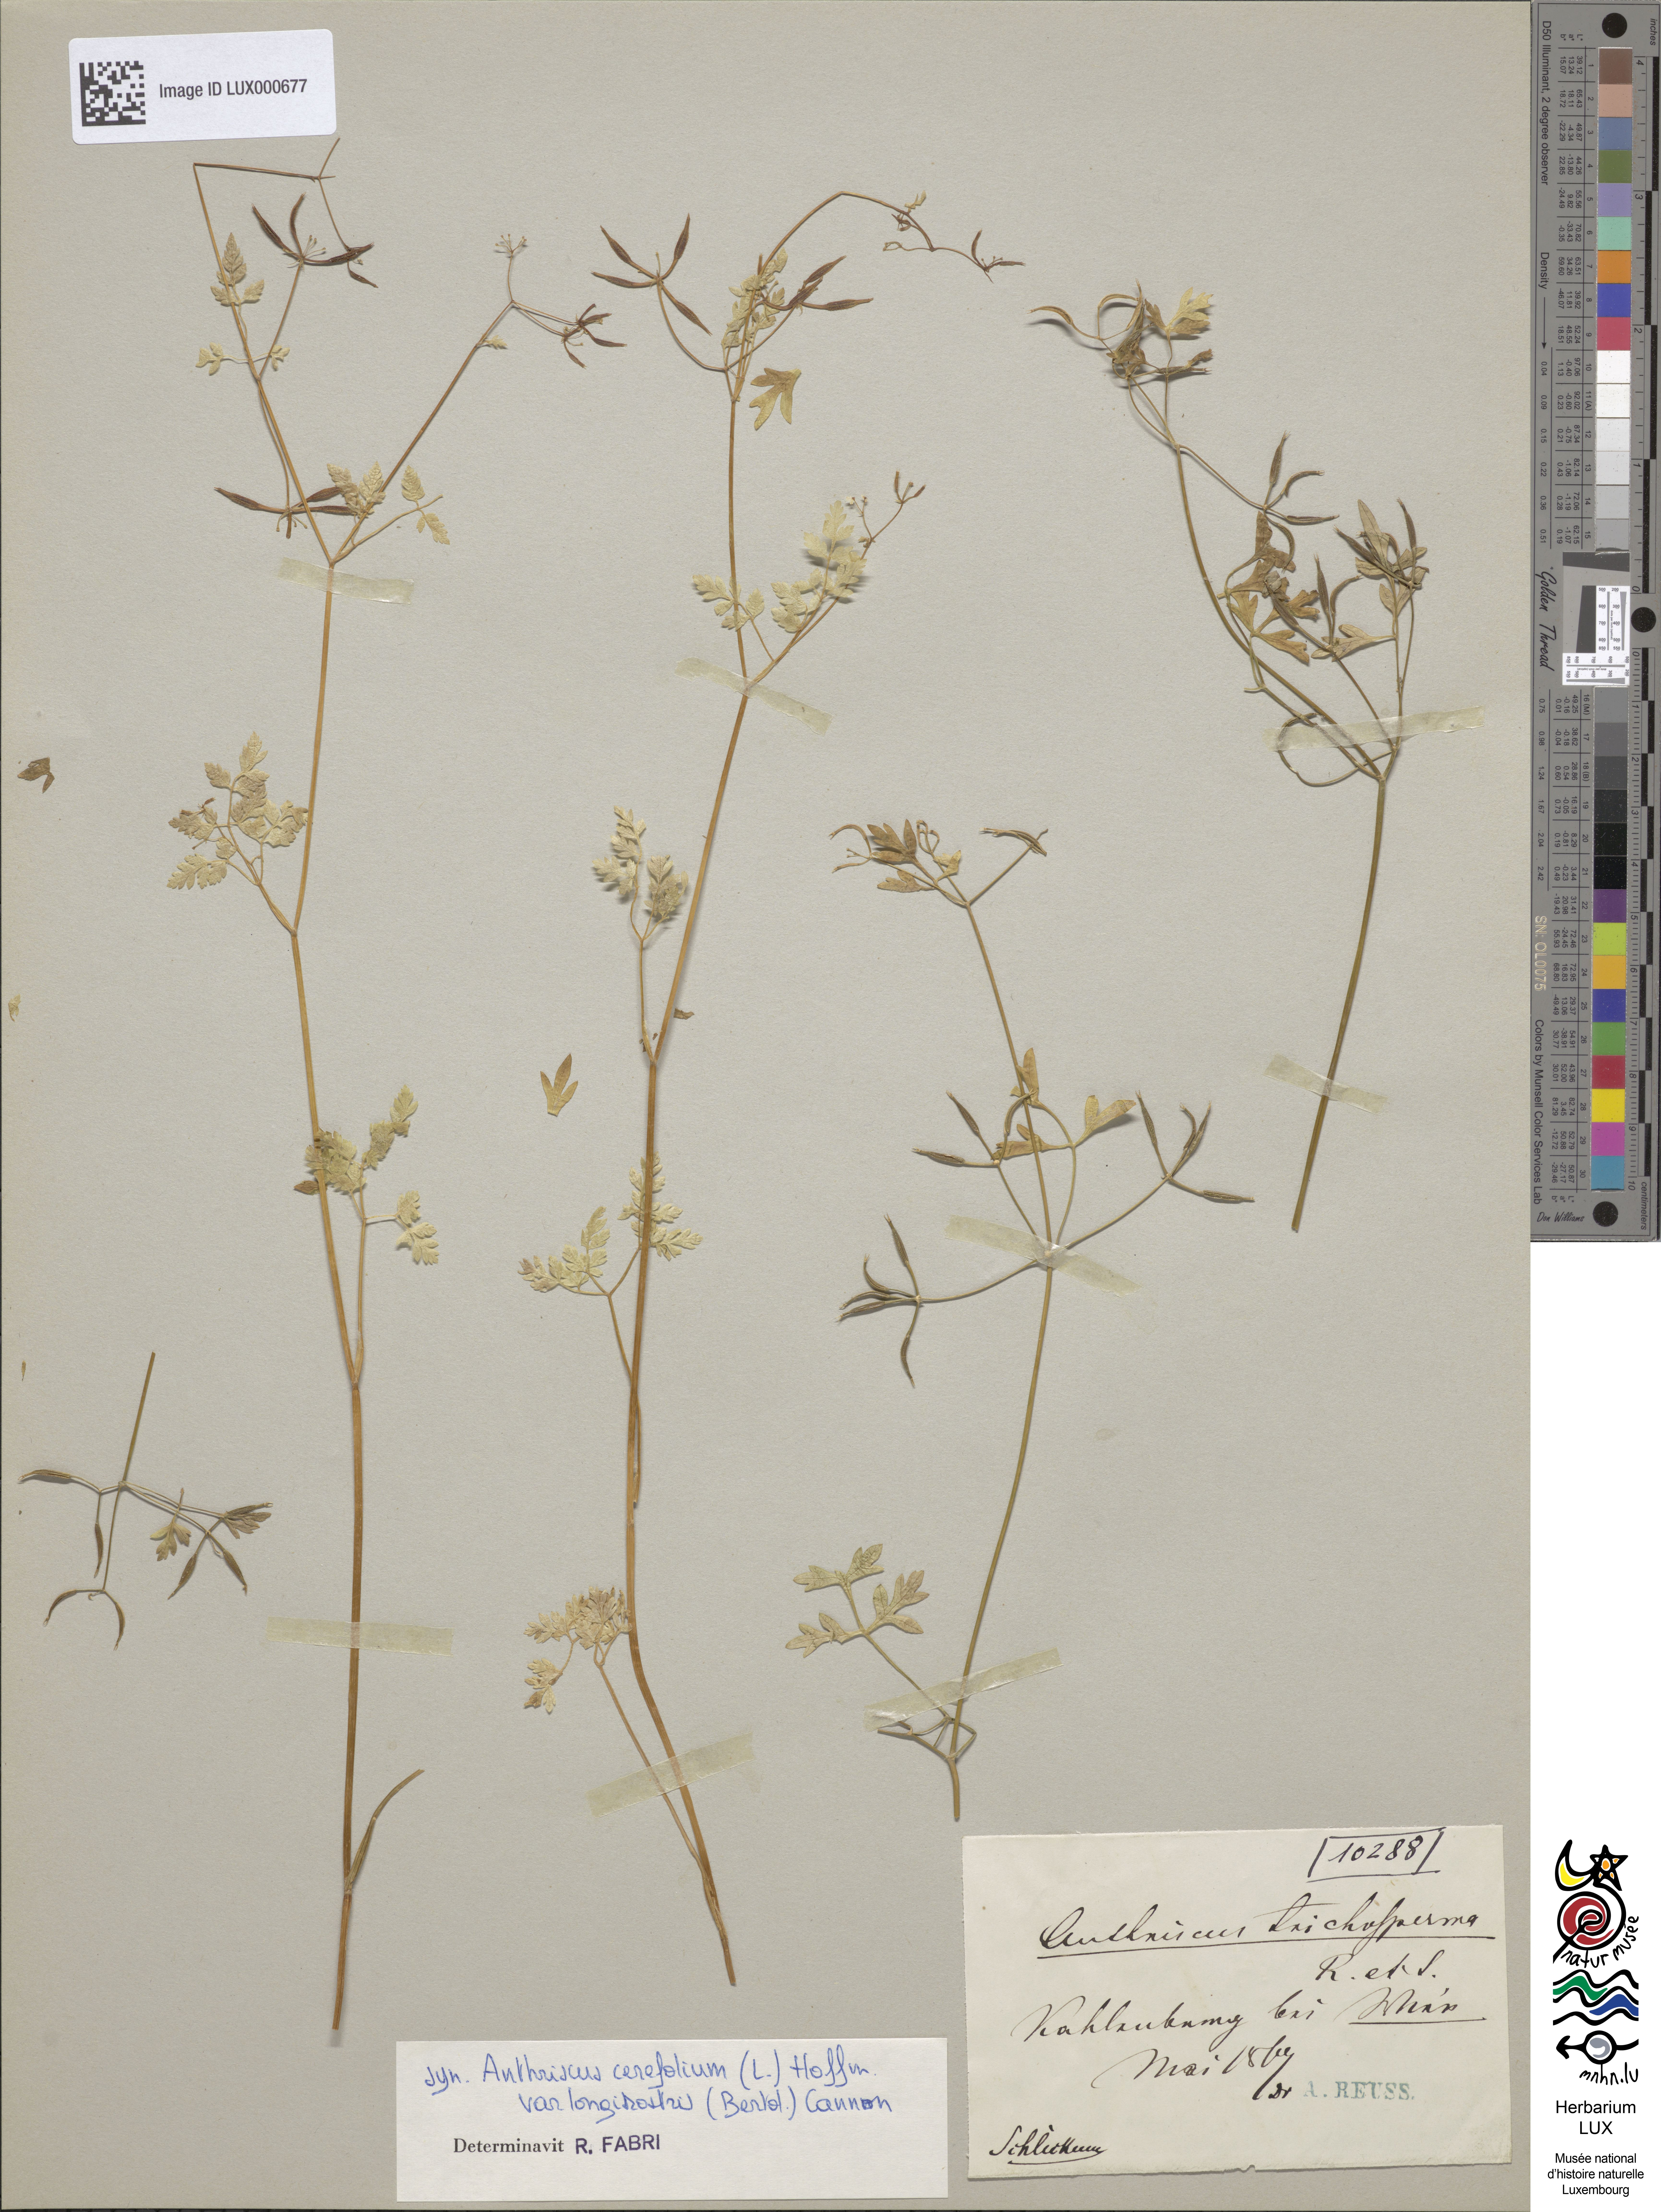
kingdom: Plantae
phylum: Tracheophyta
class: Magnoliopsida
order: Apiales
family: Apiaceae
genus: Anthriscus
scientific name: Anthriscus cerefolium
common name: Garden chervil
